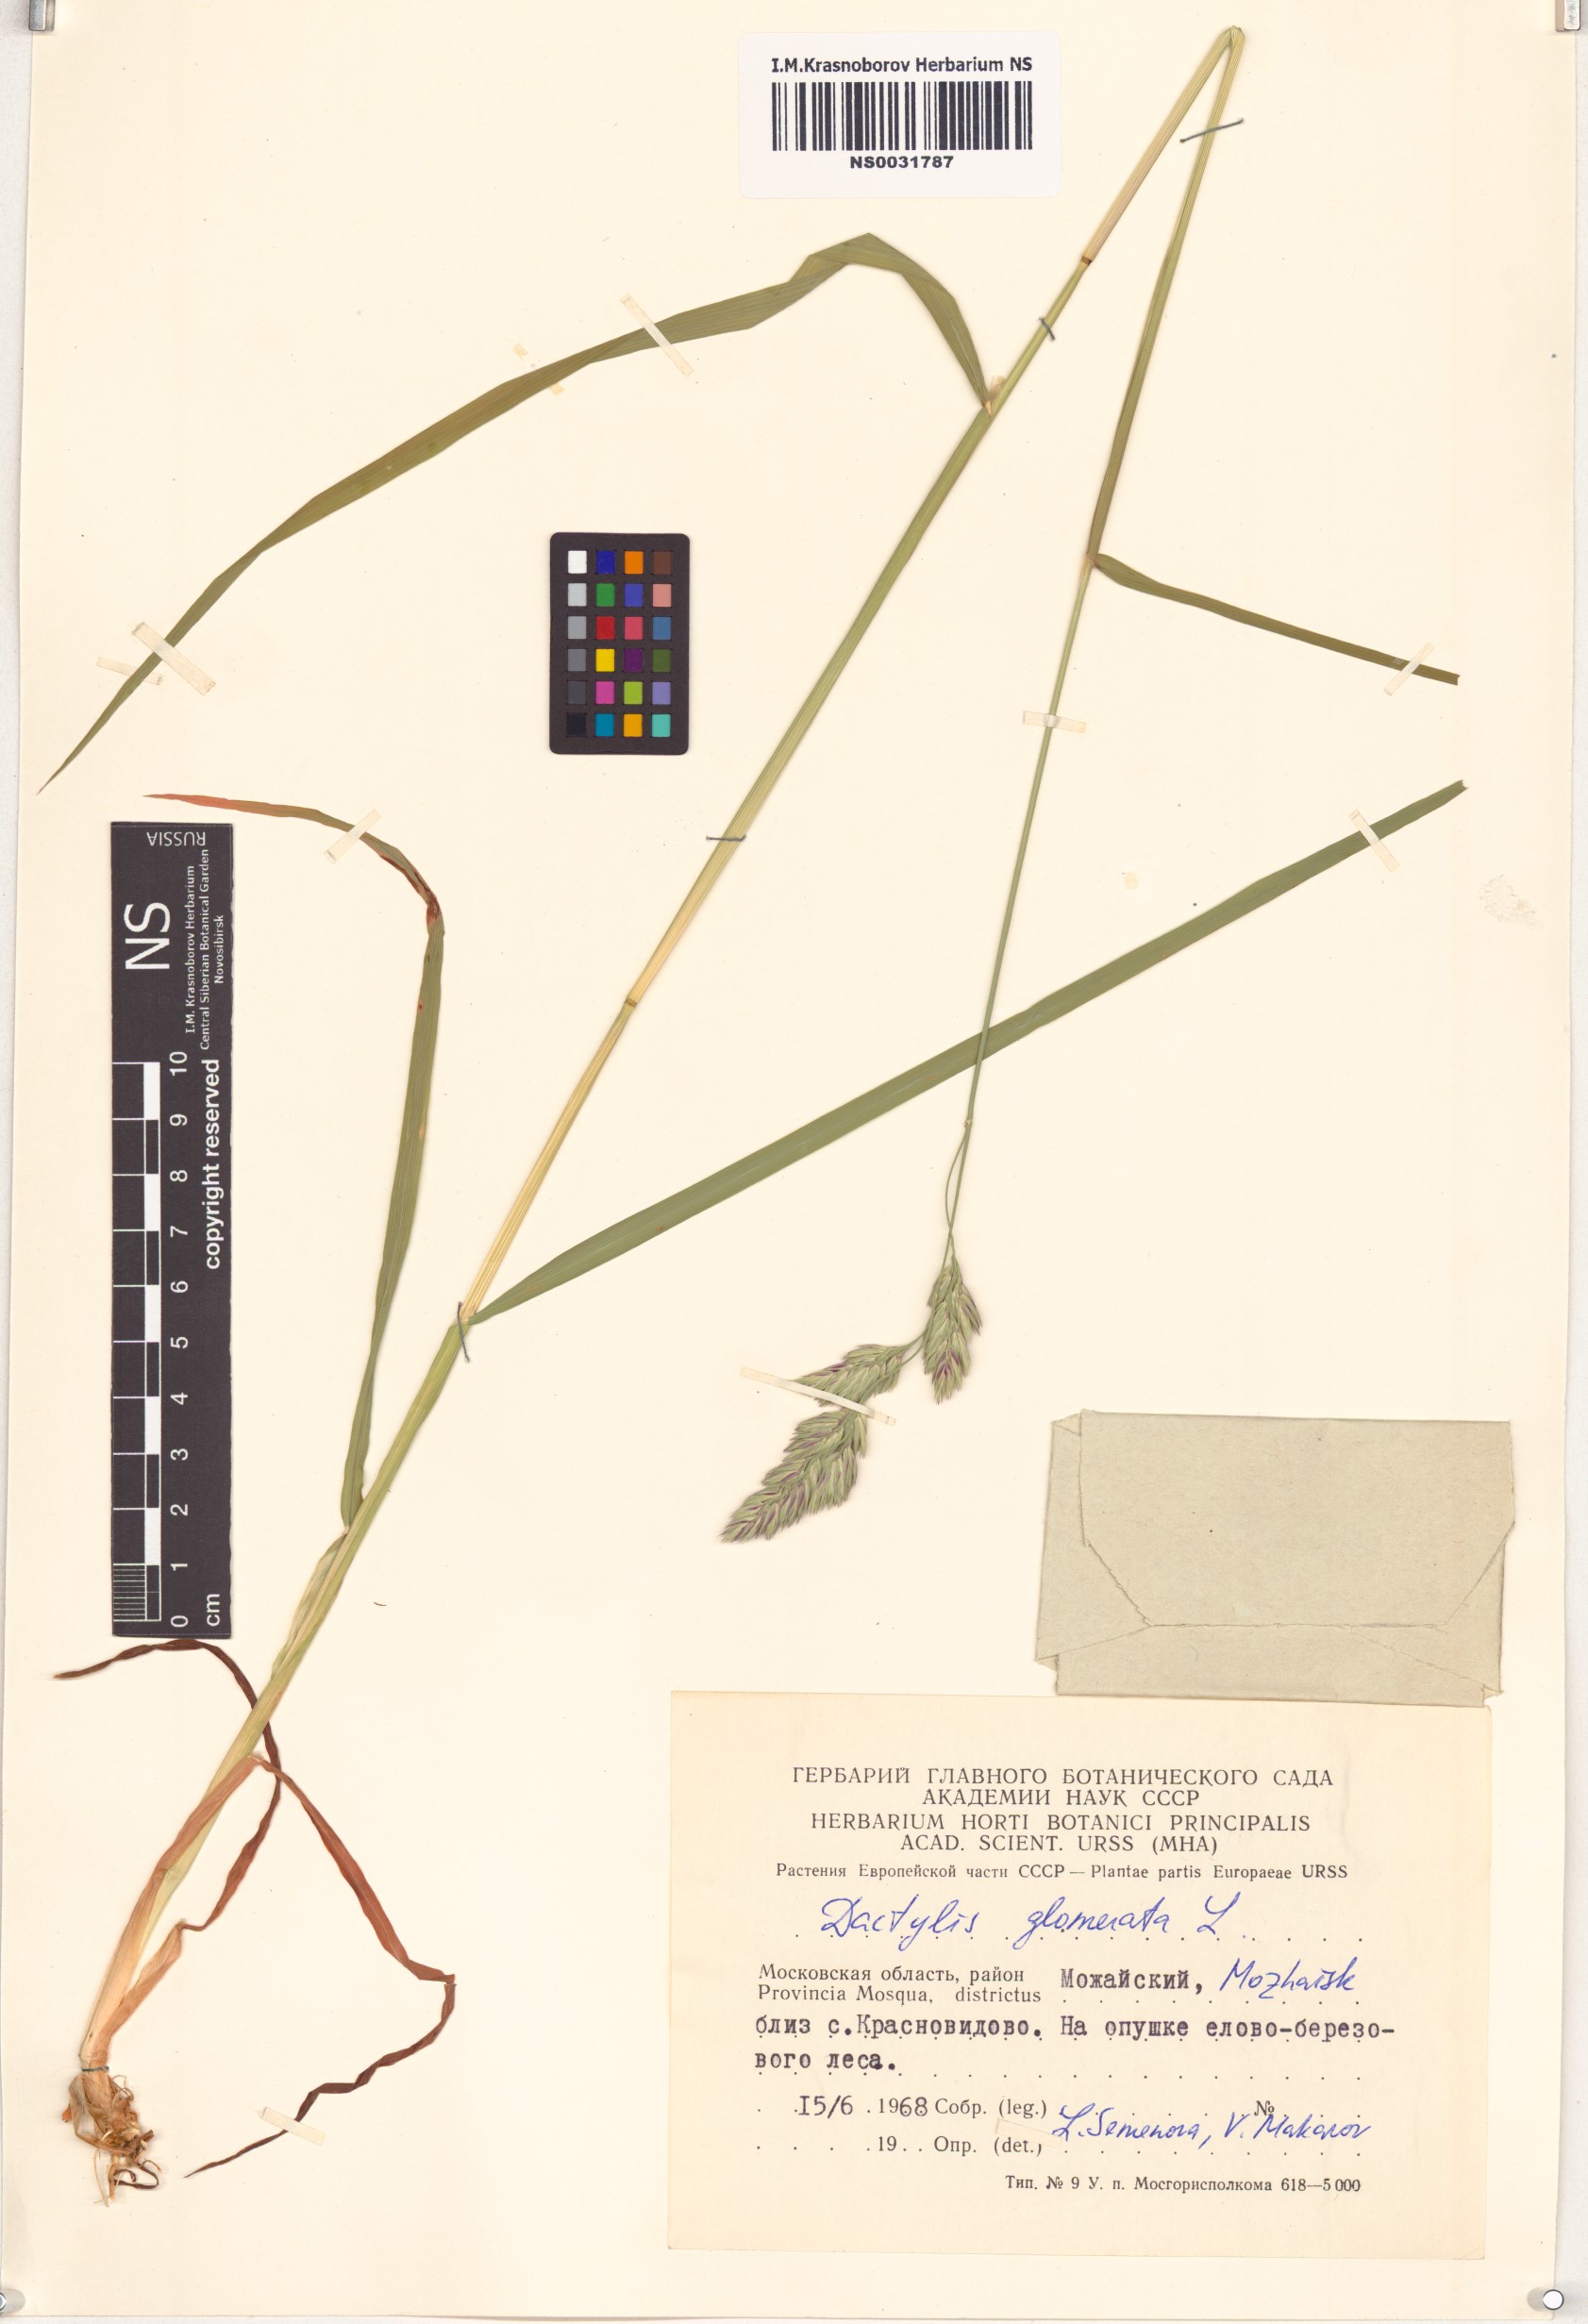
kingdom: Plantae
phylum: Tracheophyta
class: Liliopsida
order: Poales
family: Poaceae
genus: Dactylis
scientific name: Dactylis glomerata
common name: Orchardgrass
